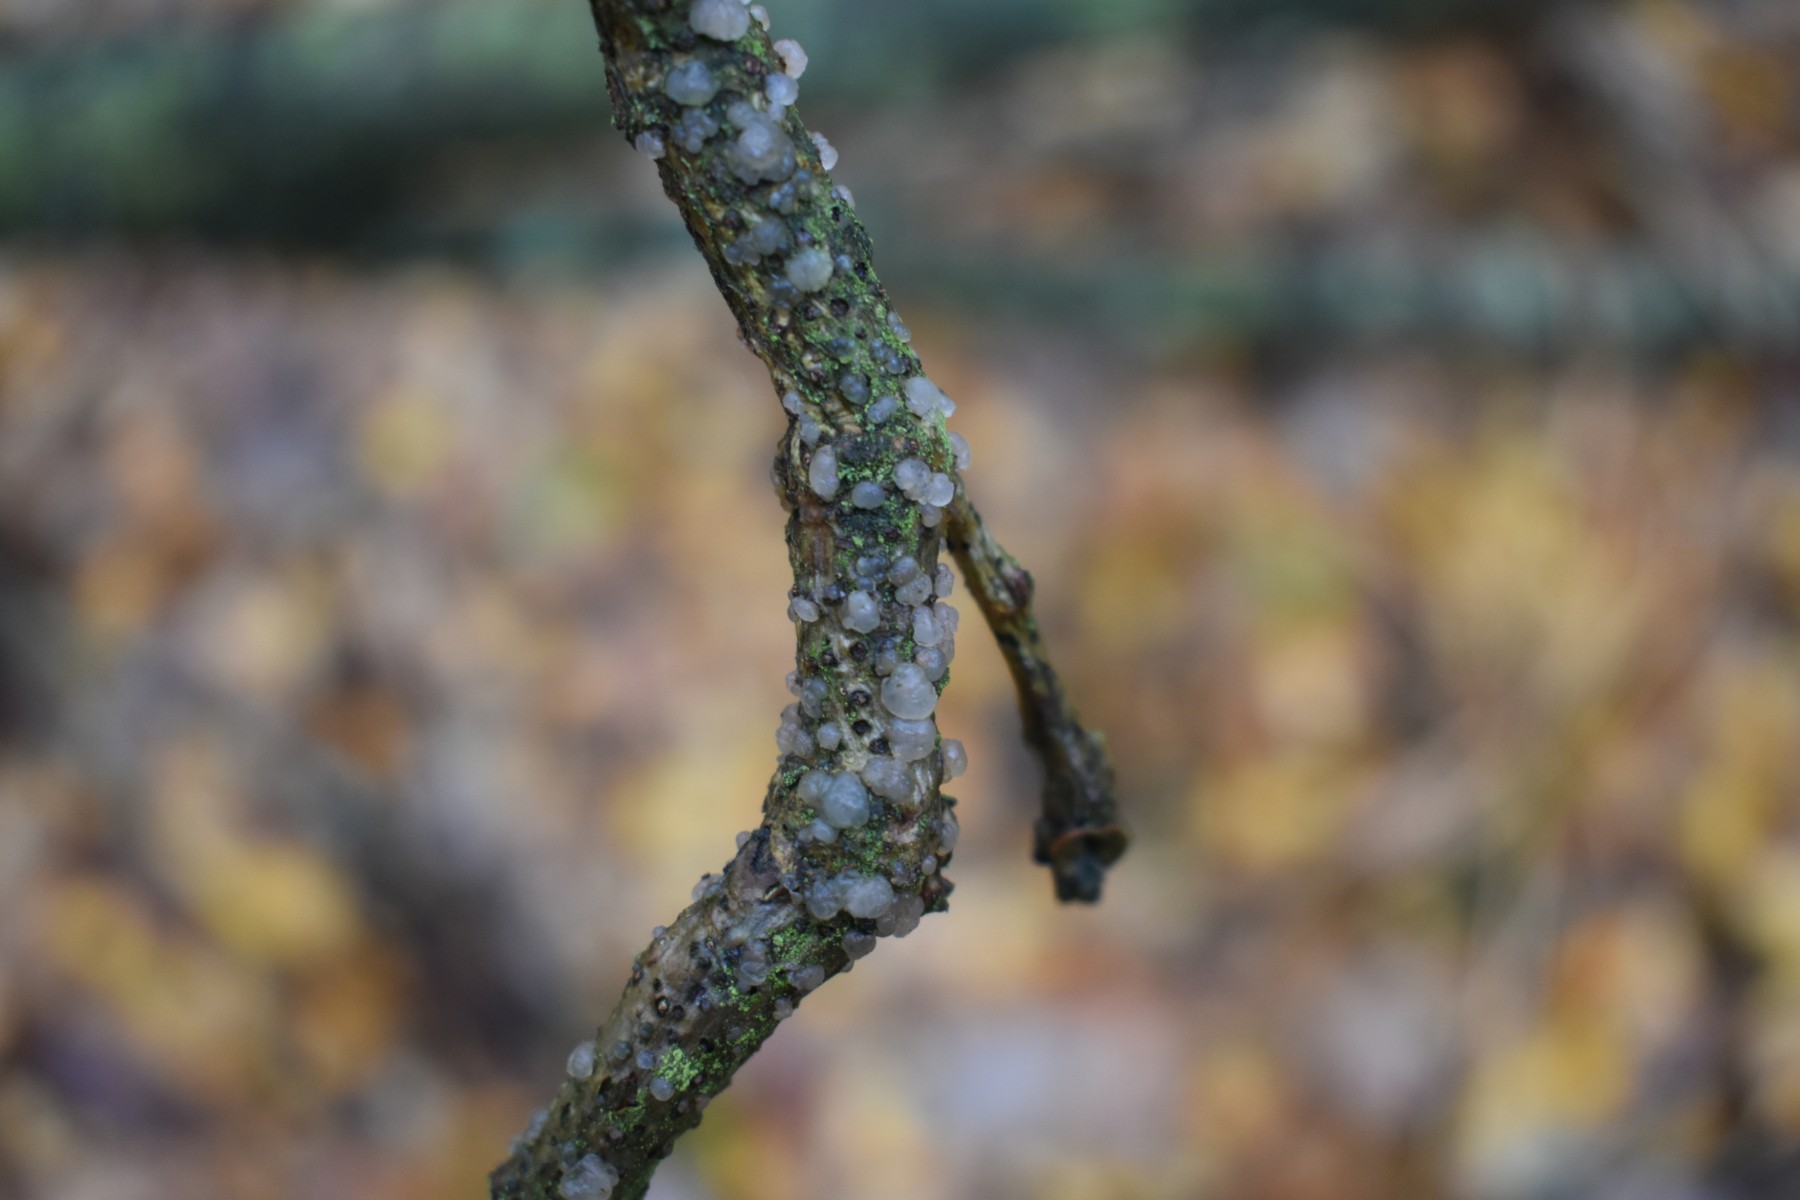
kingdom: Fungi
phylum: Basidiomycota
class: Tremellomycetes
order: Tremellales
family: Tremellaceae
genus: Tremella
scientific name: Tremella globispora
